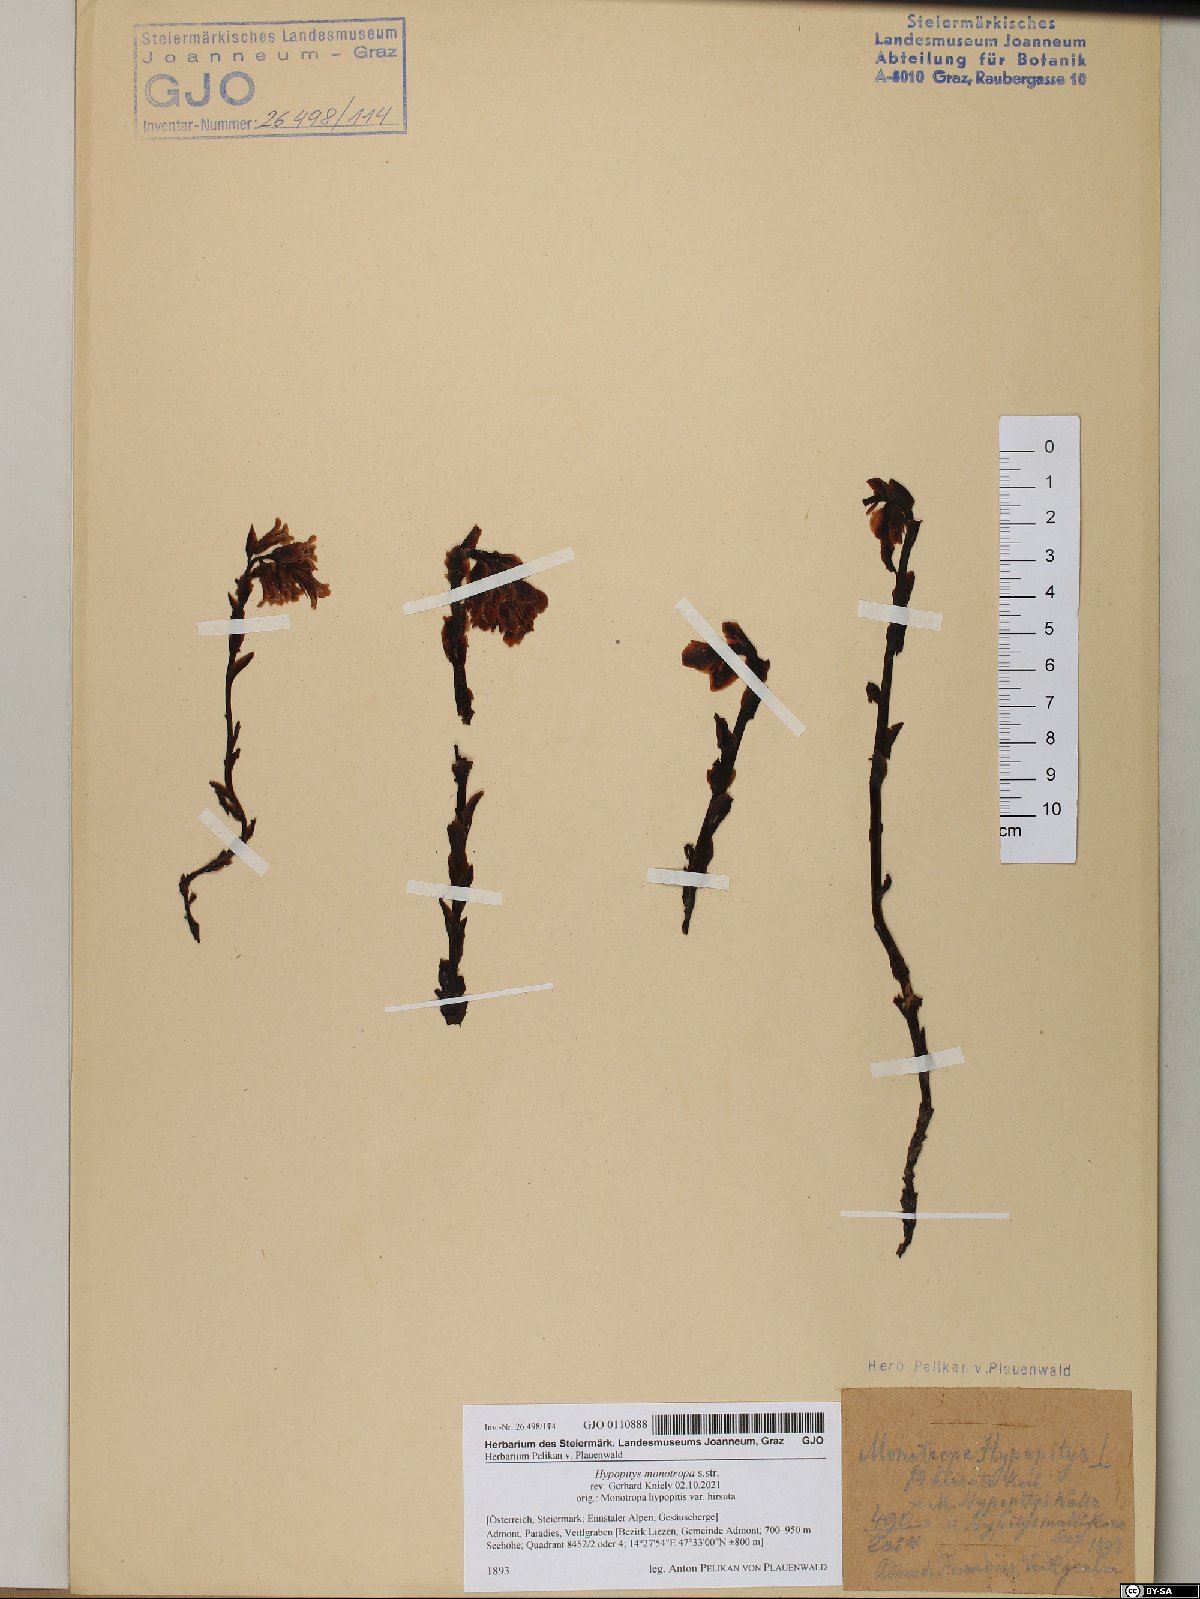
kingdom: Plantae
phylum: Tracheophyta
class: Magnoliopsida
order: Ericales
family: Ericaceae
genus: Hypopitys
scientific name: Hypopitys monotropa
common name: Yellow bird's-nest
